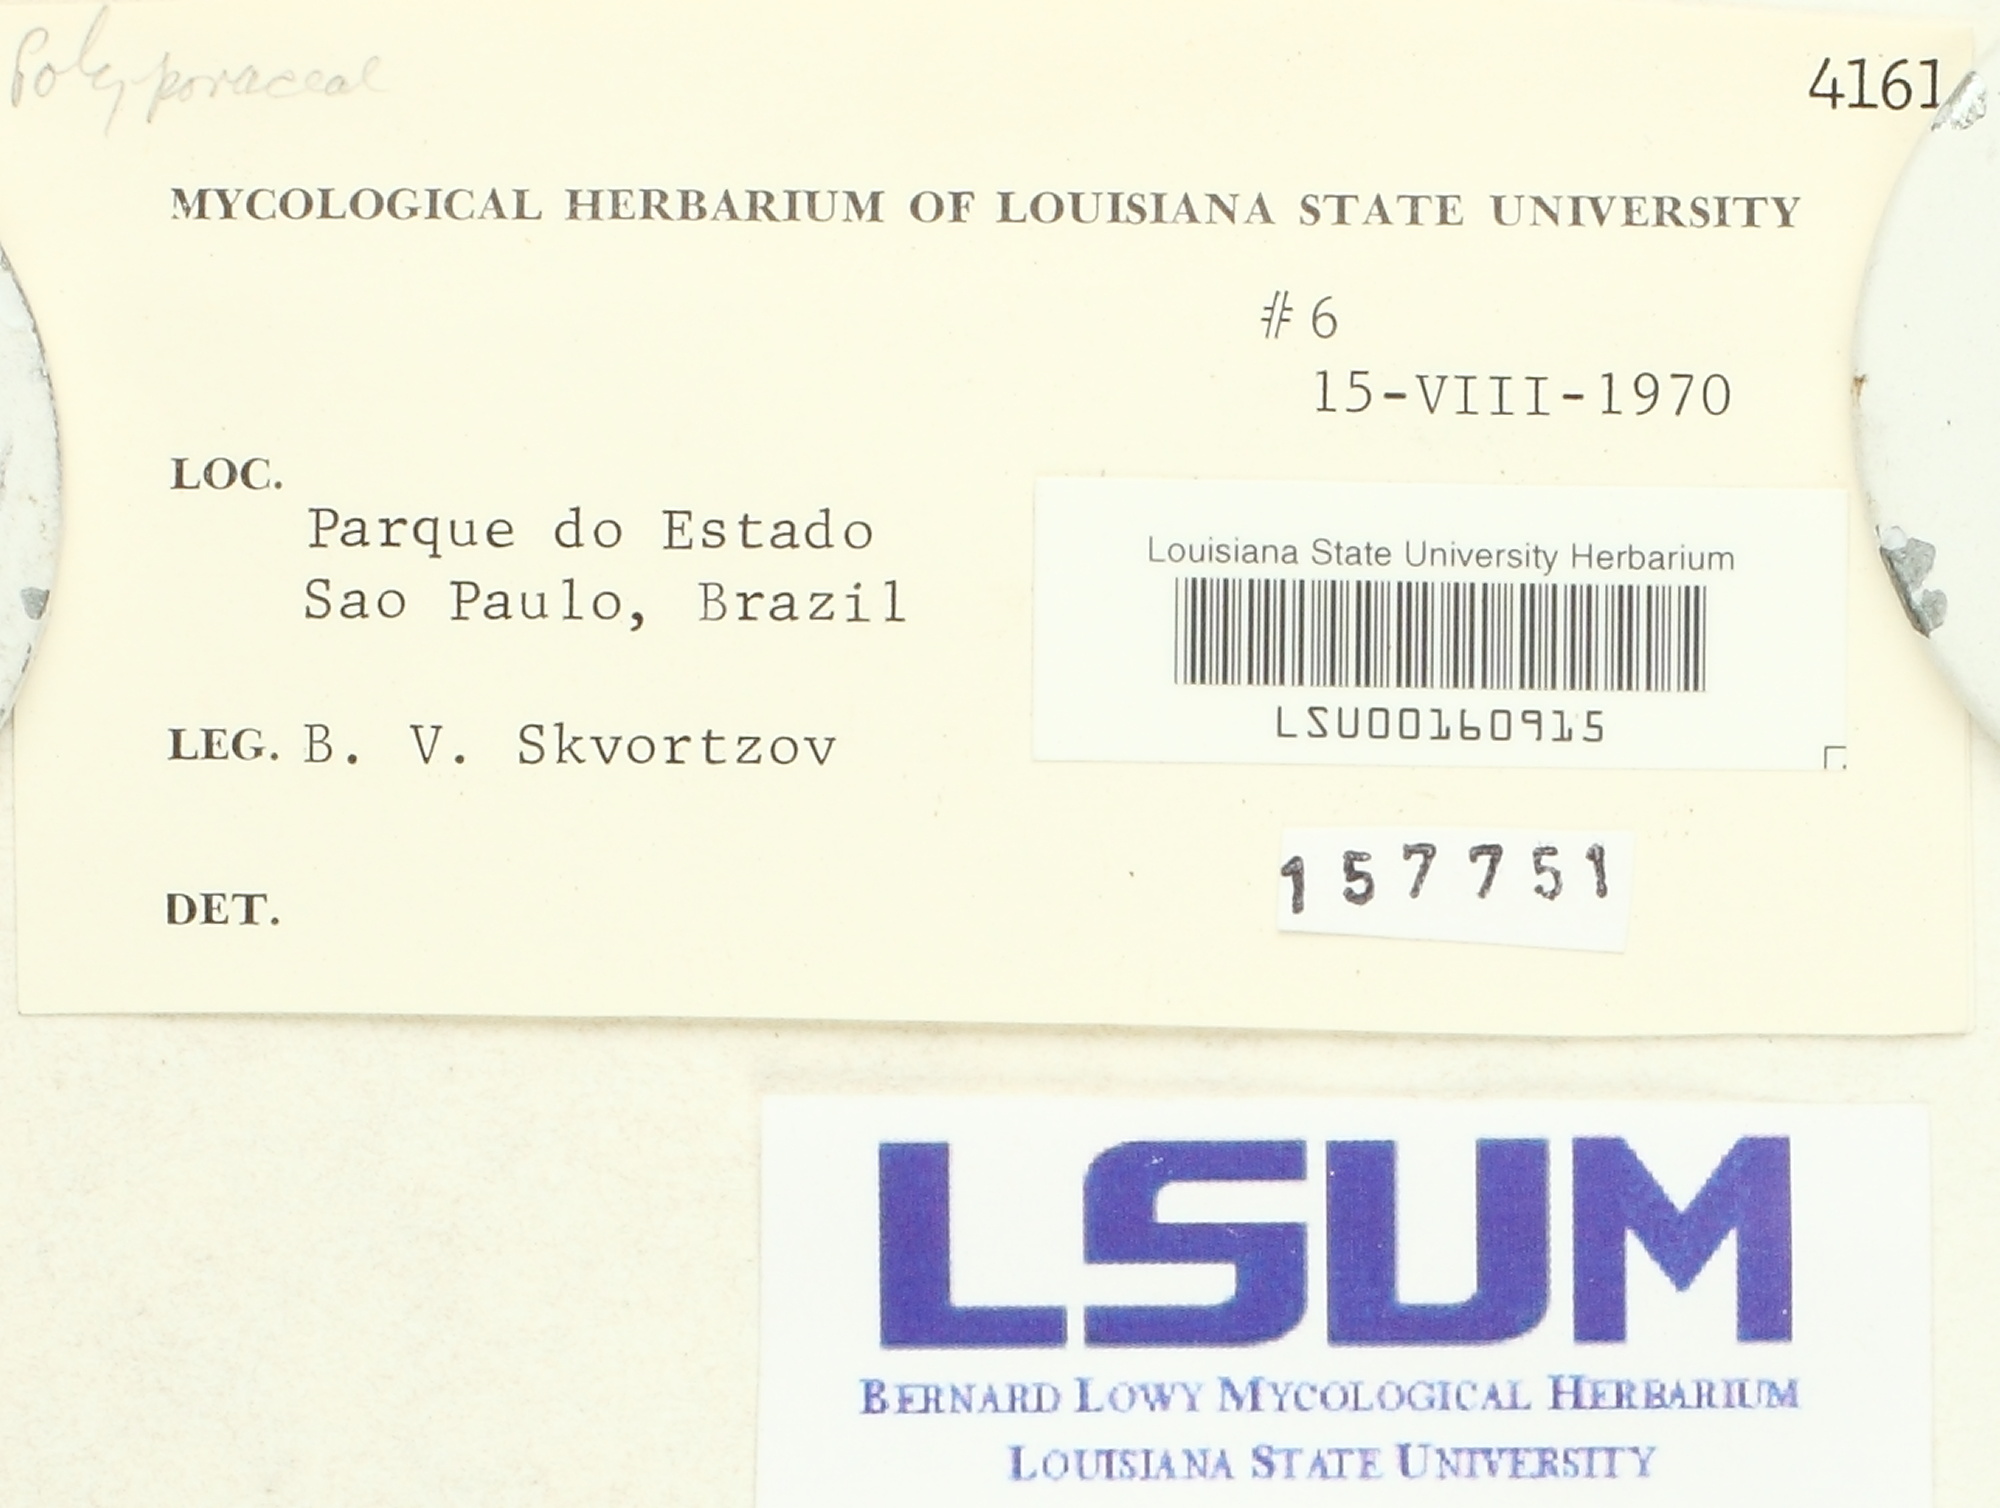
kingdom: Fungi
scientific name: Fungi
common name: Fungi
